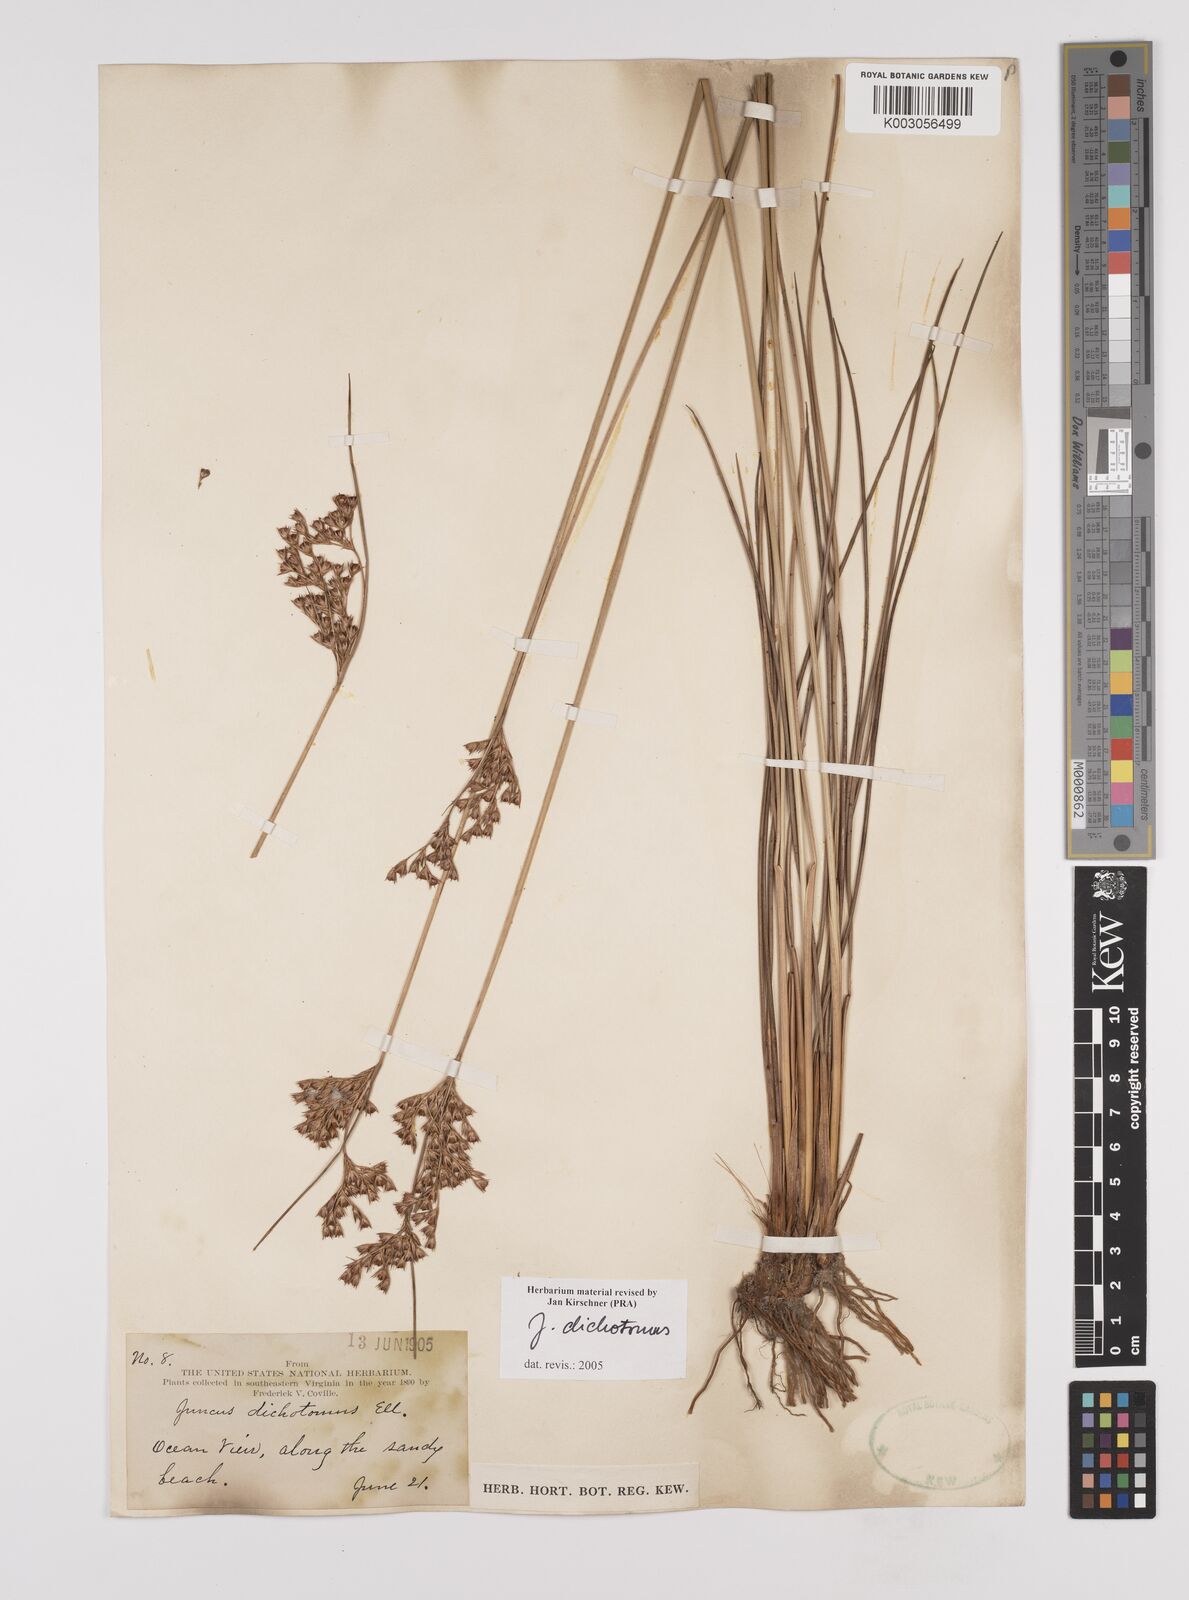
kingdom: Plantae
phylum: Tracheophyta
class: Liliopsida
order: Poales
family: Juncaceae
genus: Juncus
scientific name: Juncus dichotomus
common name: Forked rush
